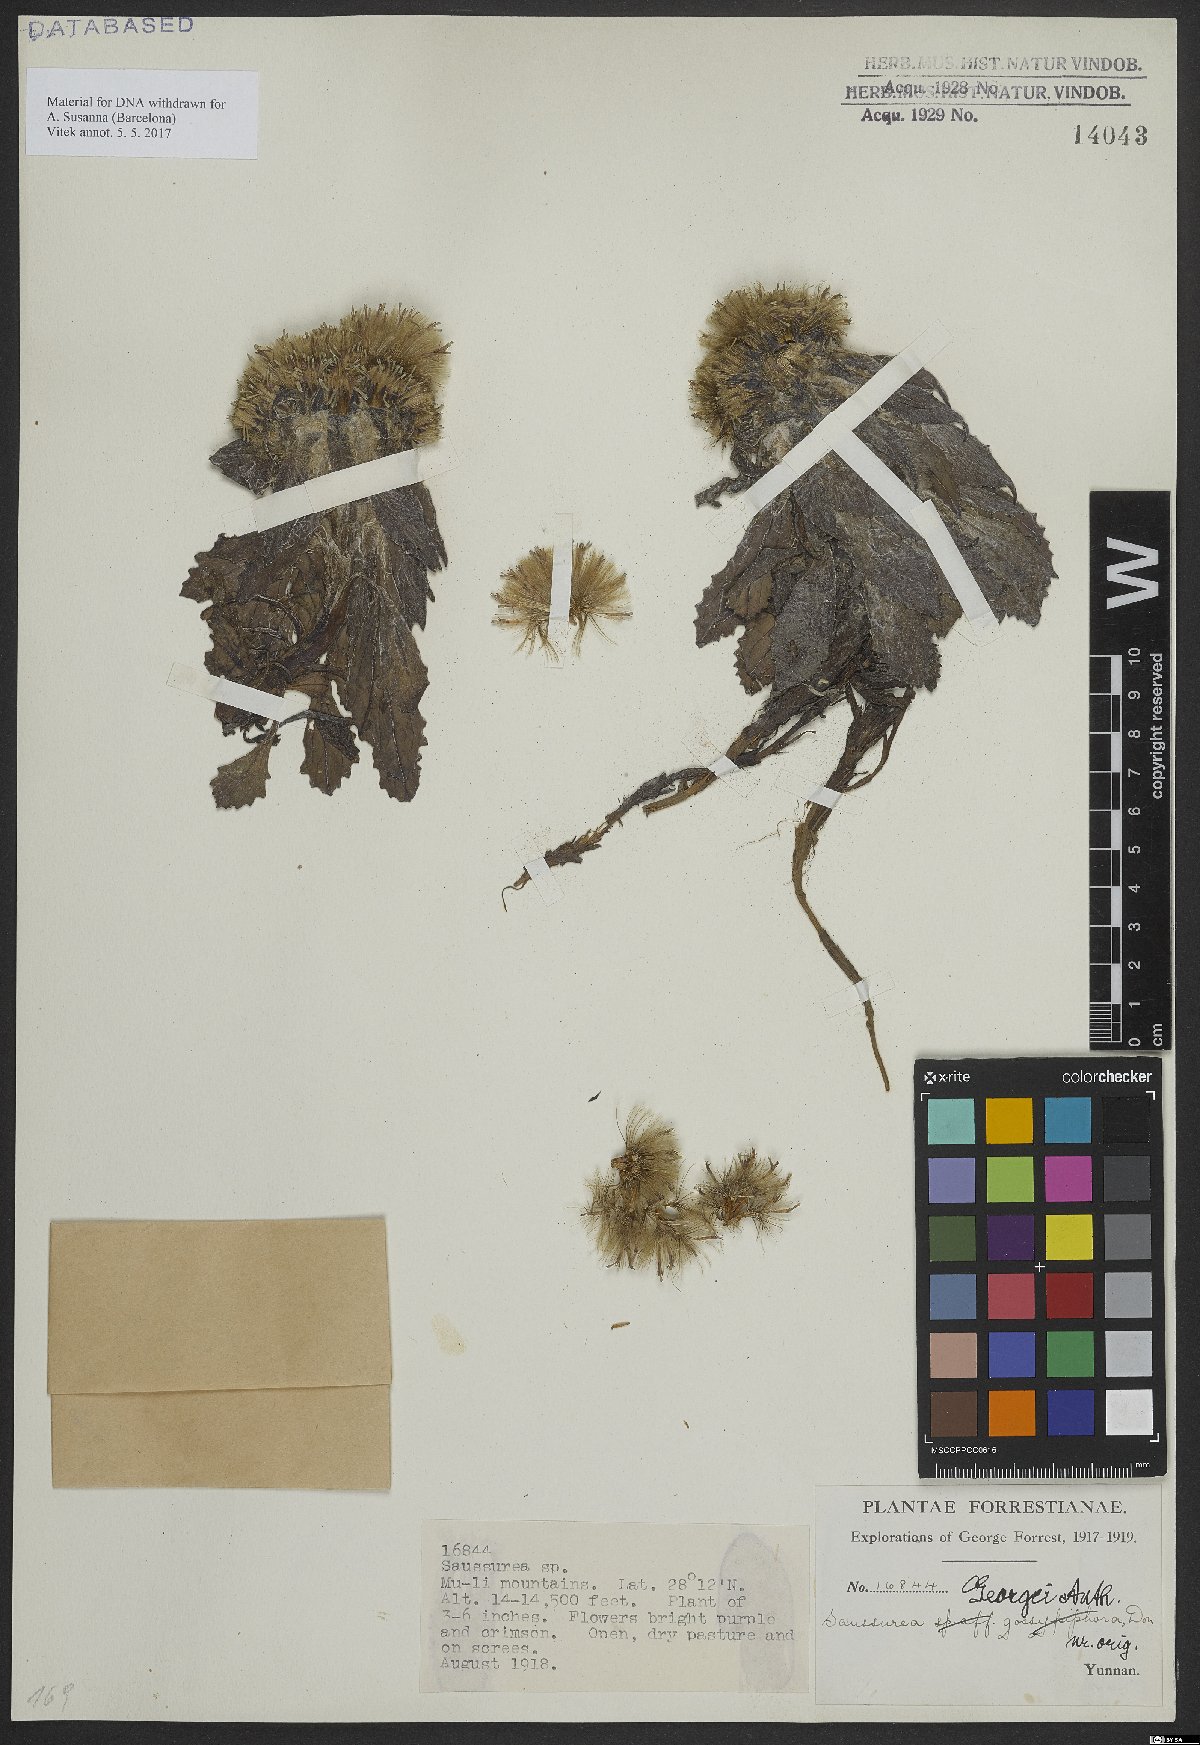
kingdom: Plantae
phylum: Tracheophyta
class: Magnoliopsida
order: Asterales
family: Asteraceae
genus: Saussurea
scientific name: Saussurea georgei
